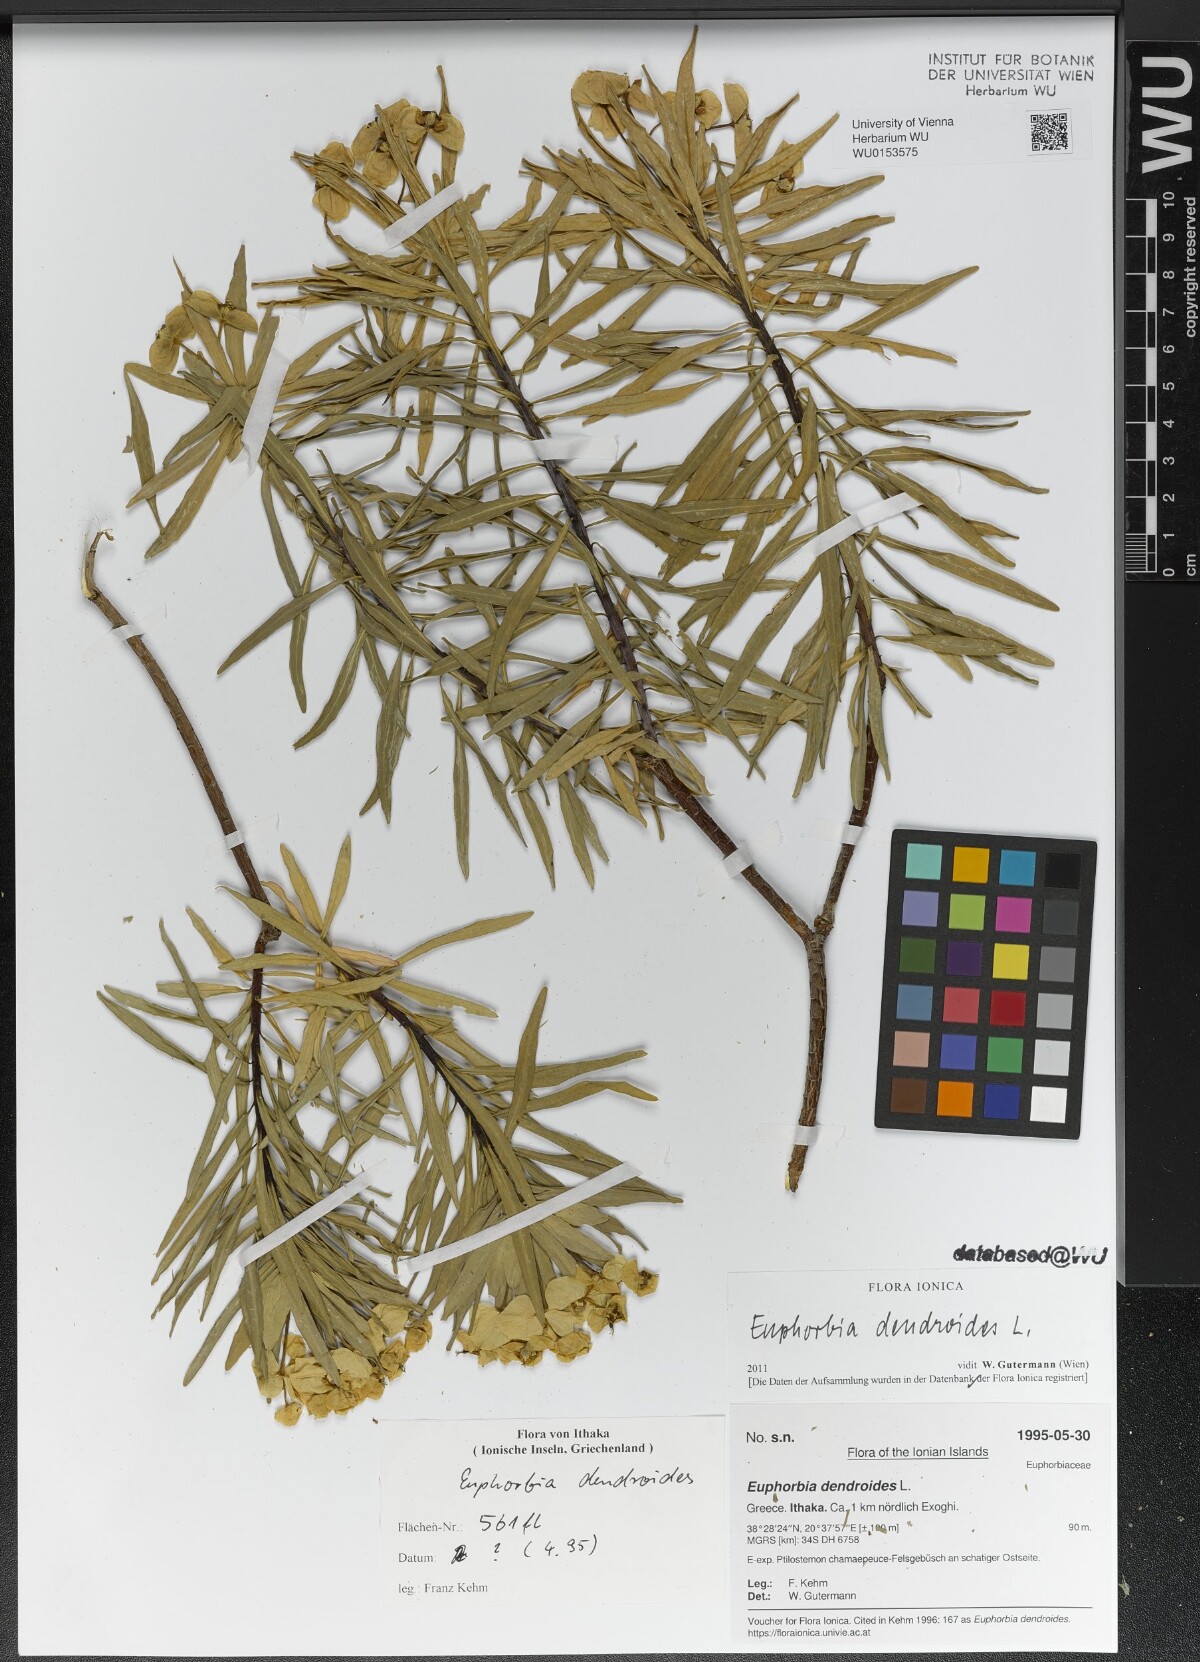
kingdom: Plantae
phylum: Tracheophyta
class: Magnoliopsida
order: Malpighiales
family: Euphorbiaceae
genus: Euphorbia
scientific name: Euphorbia dendroides
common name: Tree spurge
